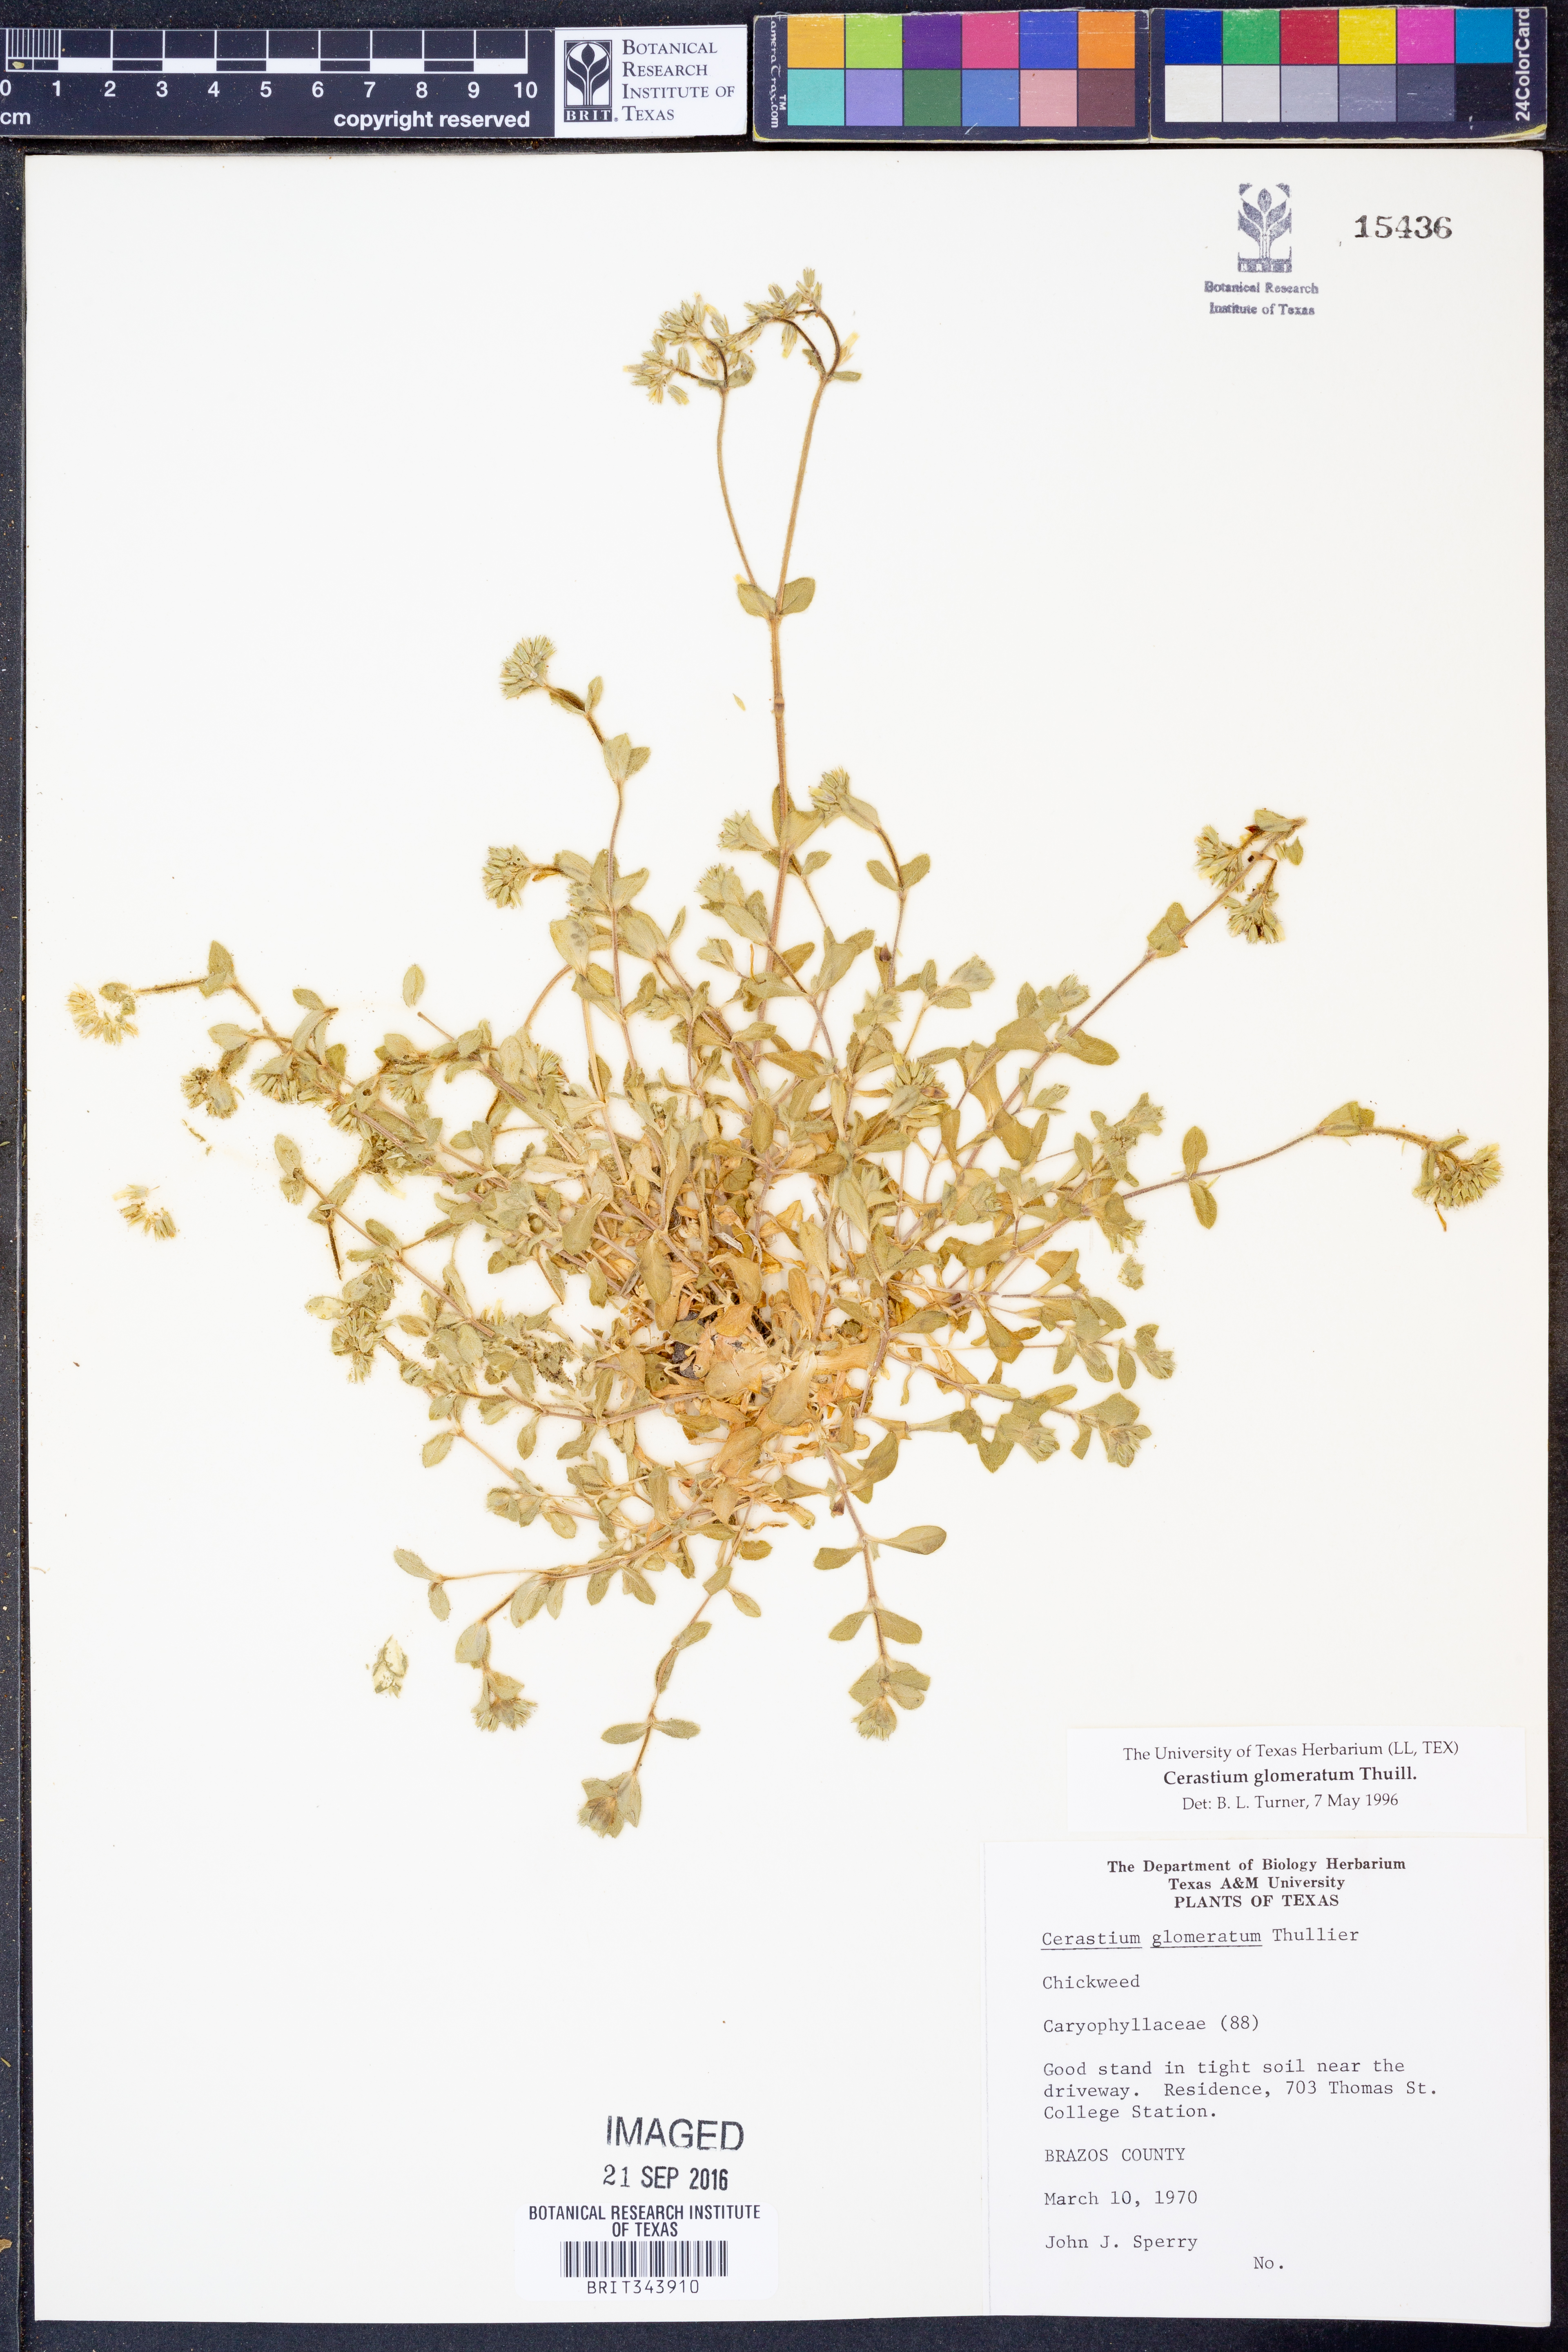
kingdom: Plantae
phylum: Tracheophyta
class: Magnoliopsida
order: Caryophyllales
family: Caryophyllaceae
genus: Cerastium
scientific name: Cerastium glomeratum
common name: Sticky chickweed
